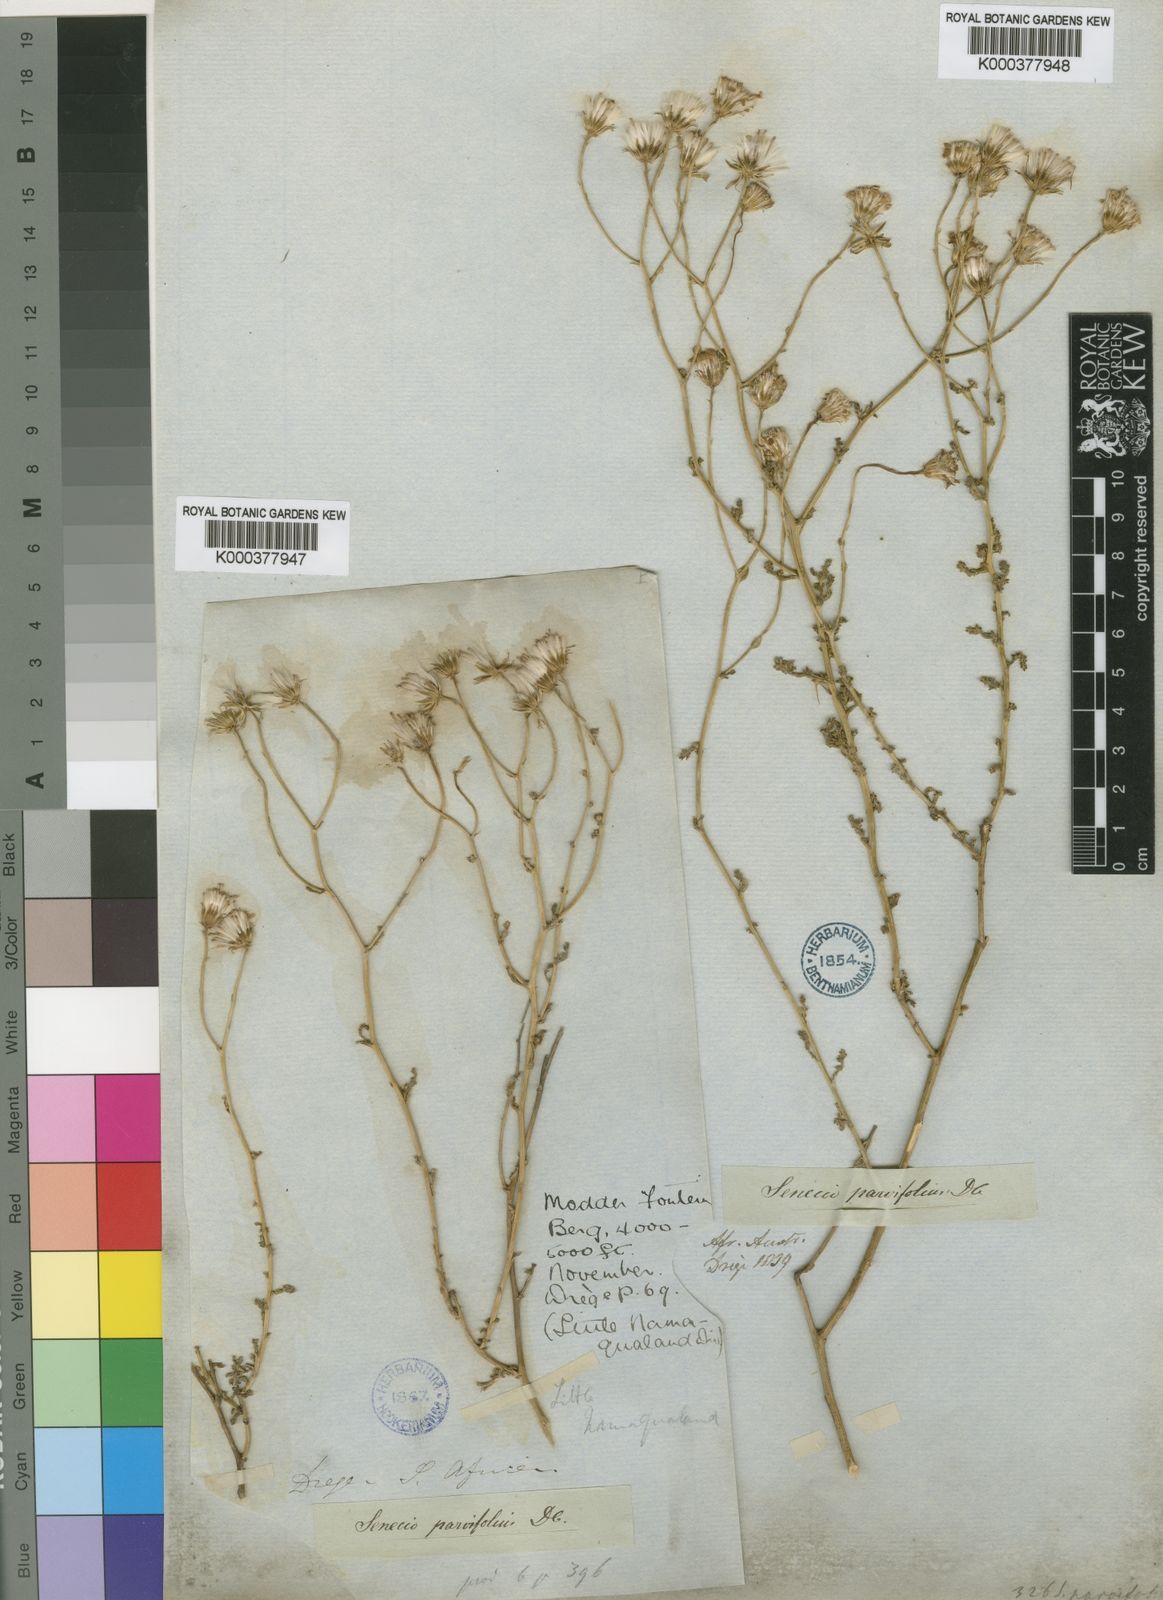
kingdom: Plantae
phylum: Tracheophyta
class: Magnoliopsida
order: Asterales
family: Asteraceae
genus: Senecio
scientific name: Senecio parvifolius
